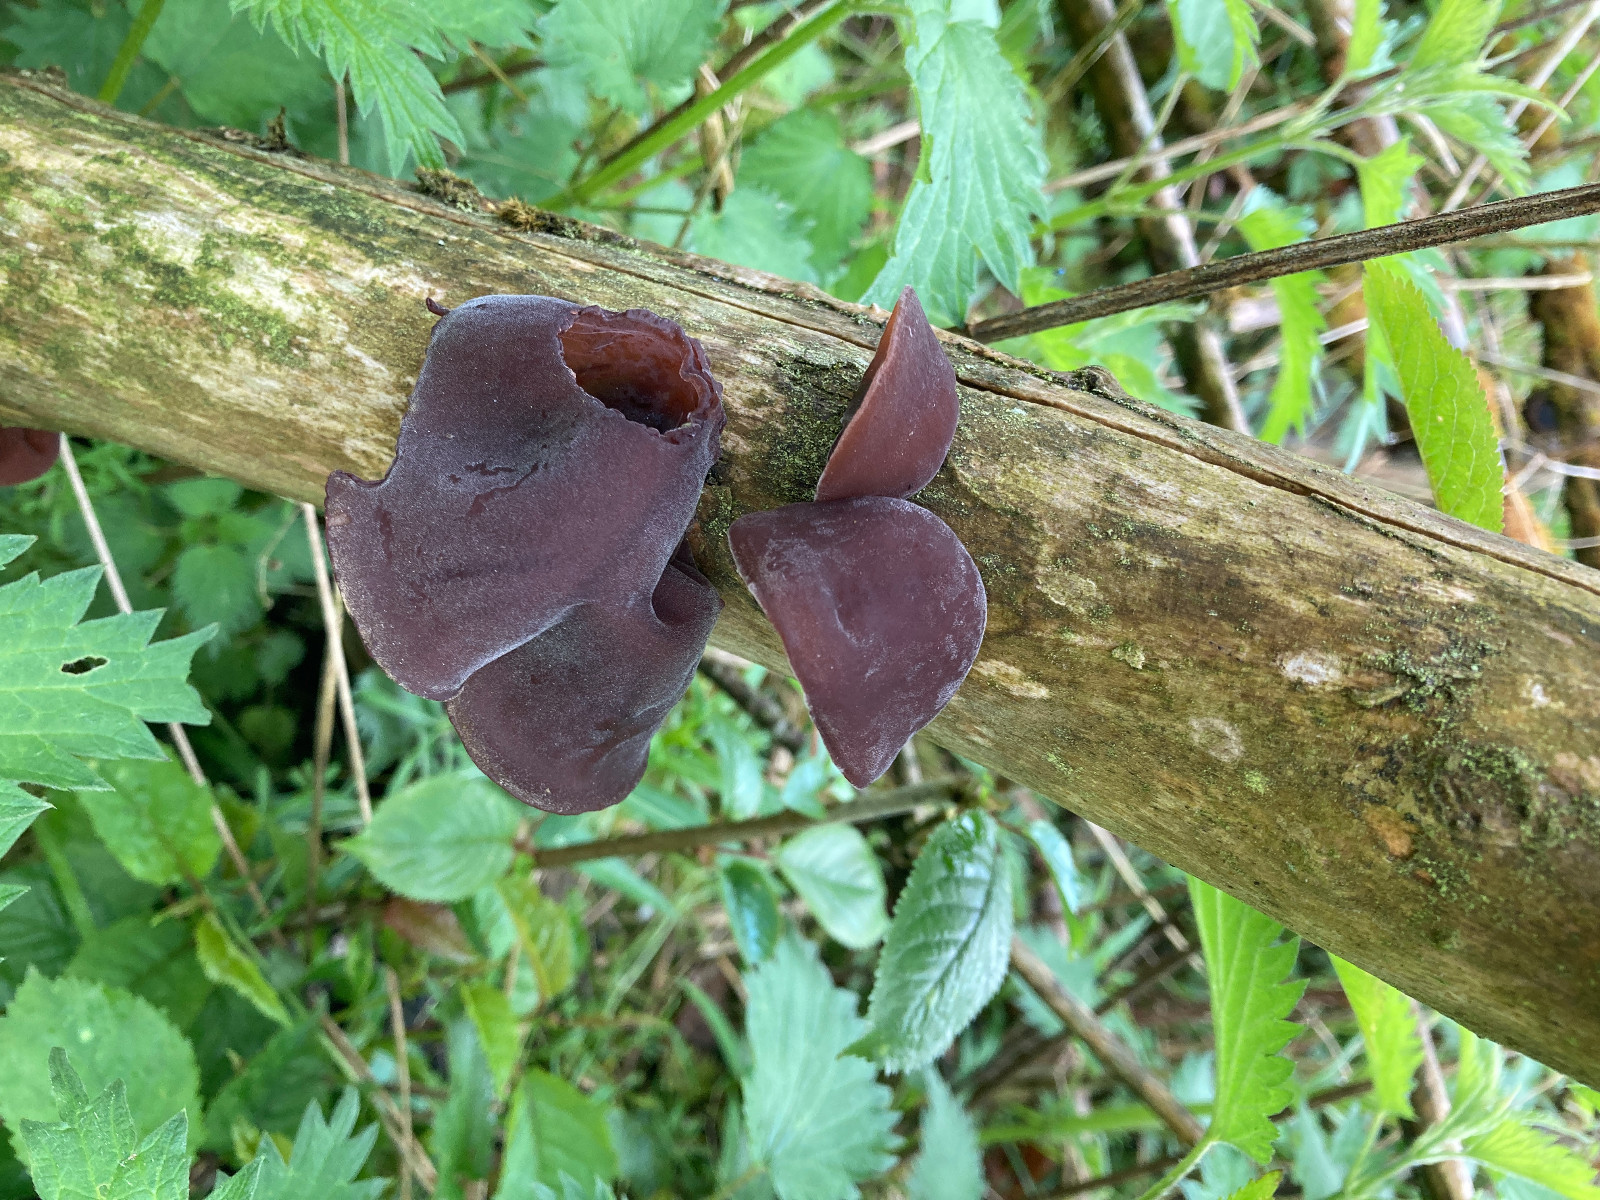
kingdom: Fungi
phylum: Basidiomycota
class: Agaricomycetes
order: Auriculariales
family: Auriculariaceae
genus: Auricularia
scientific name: Auricularia auricula-judae
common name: almindelig judasøre
